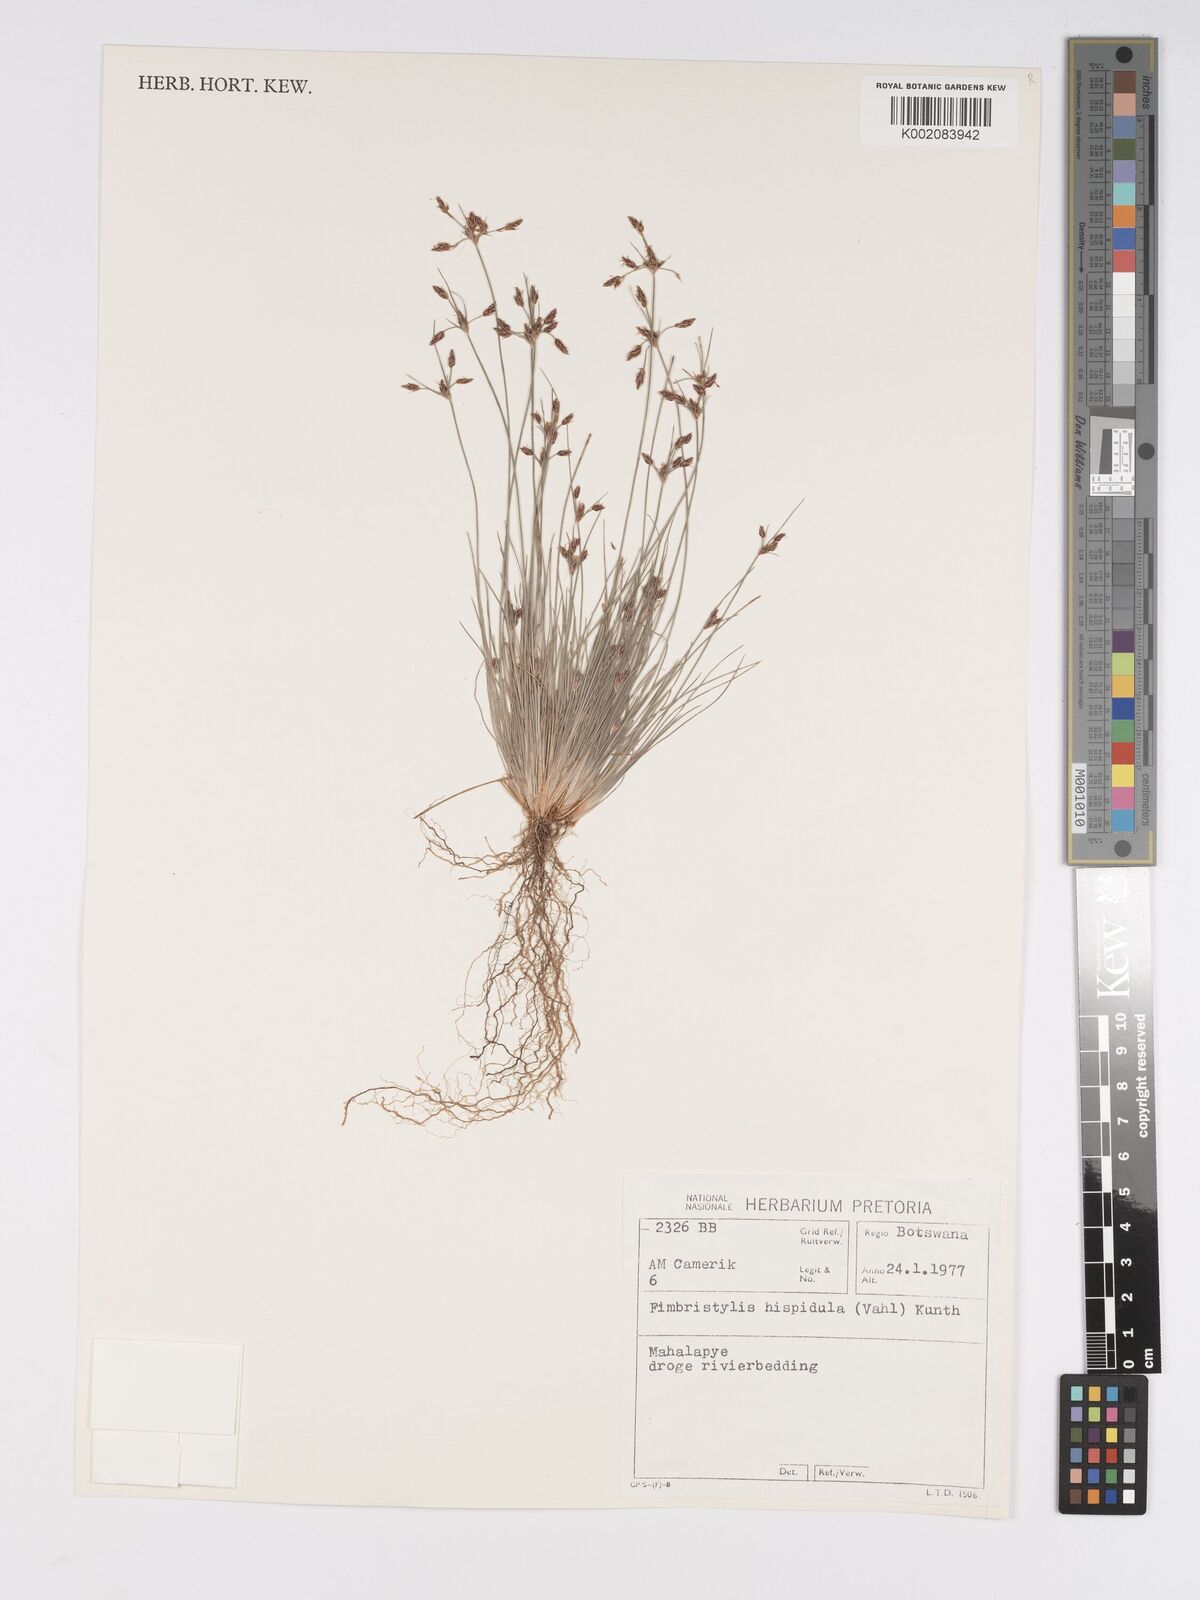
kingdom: Plantae
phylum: Tracheophyta
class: Liliopsida
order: Poales
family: Cyperaceae
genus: Bulbostylis
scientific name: Bulbostylis hispidula
